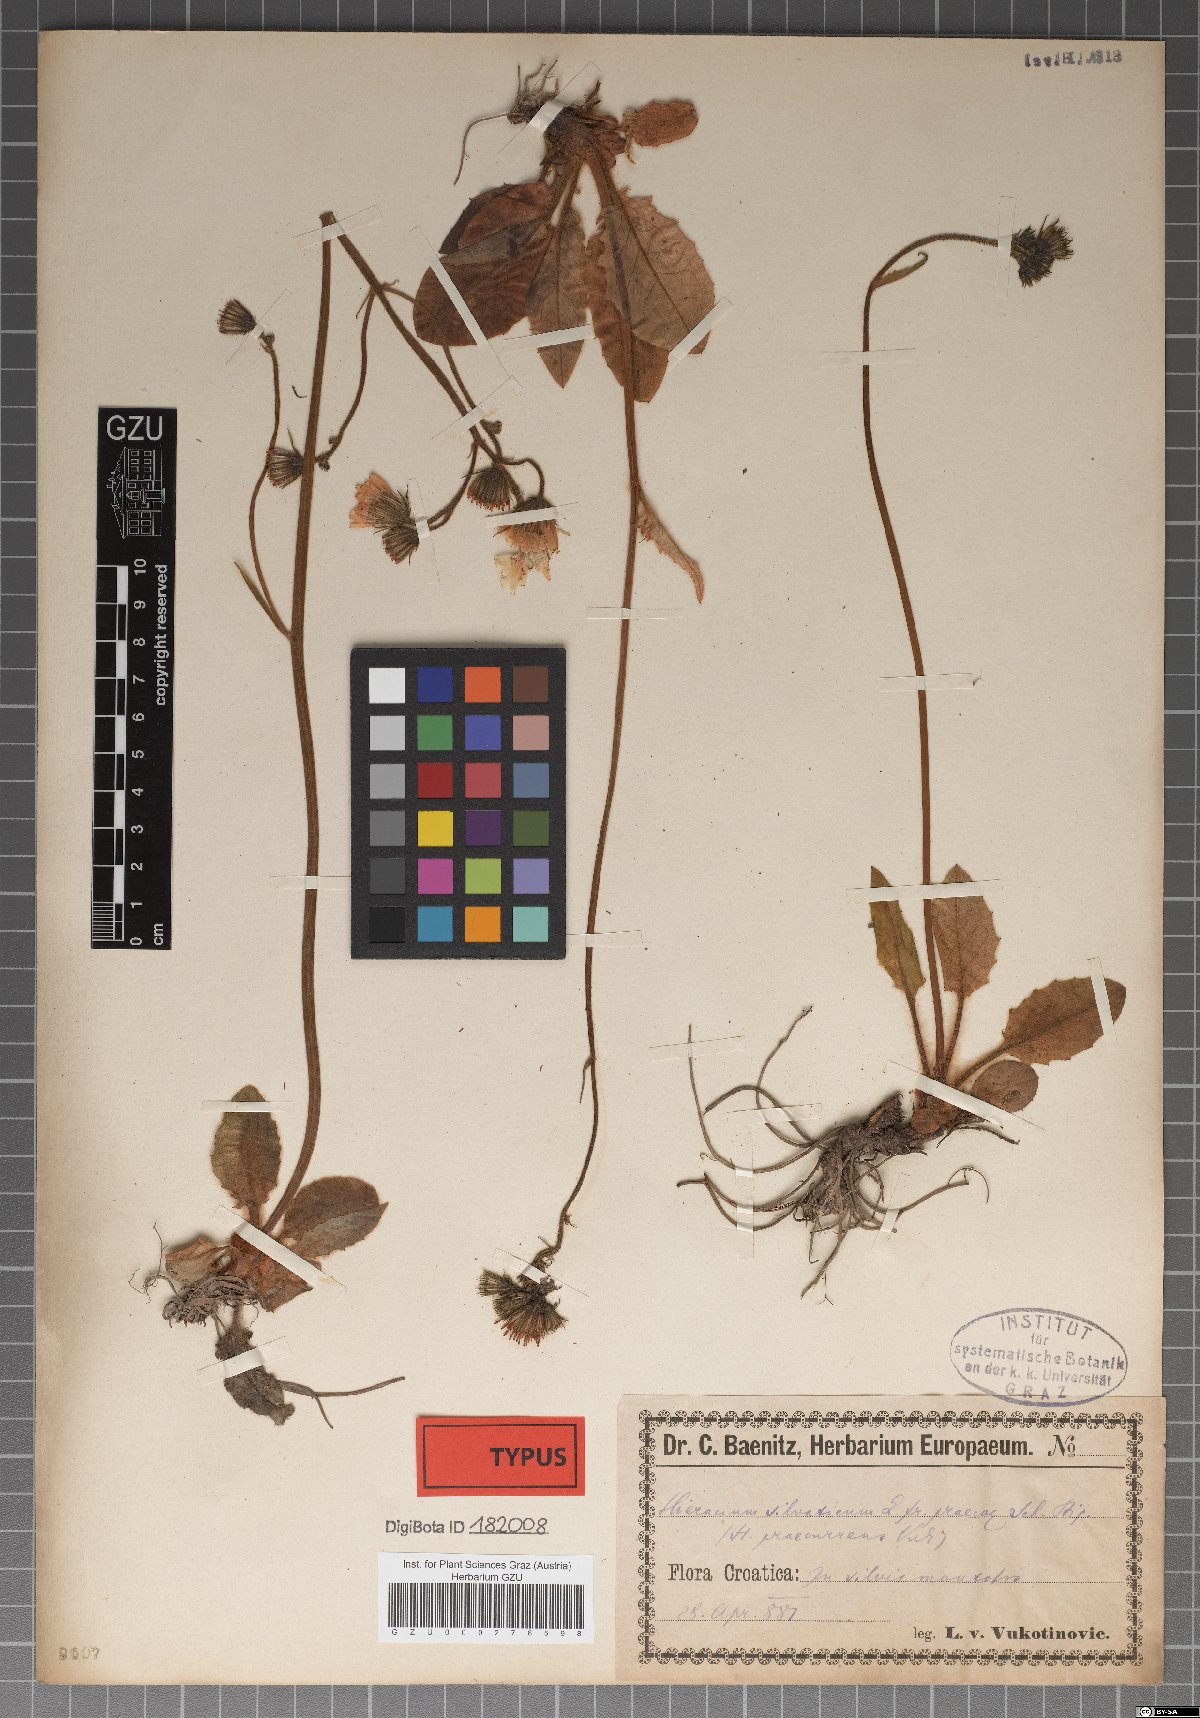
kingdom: Plantae
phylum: Tracheophyta
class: Magnoliopsida
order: Asterales
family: Asteraceae
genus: Hieracium
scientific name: Hieracium rotundatum
